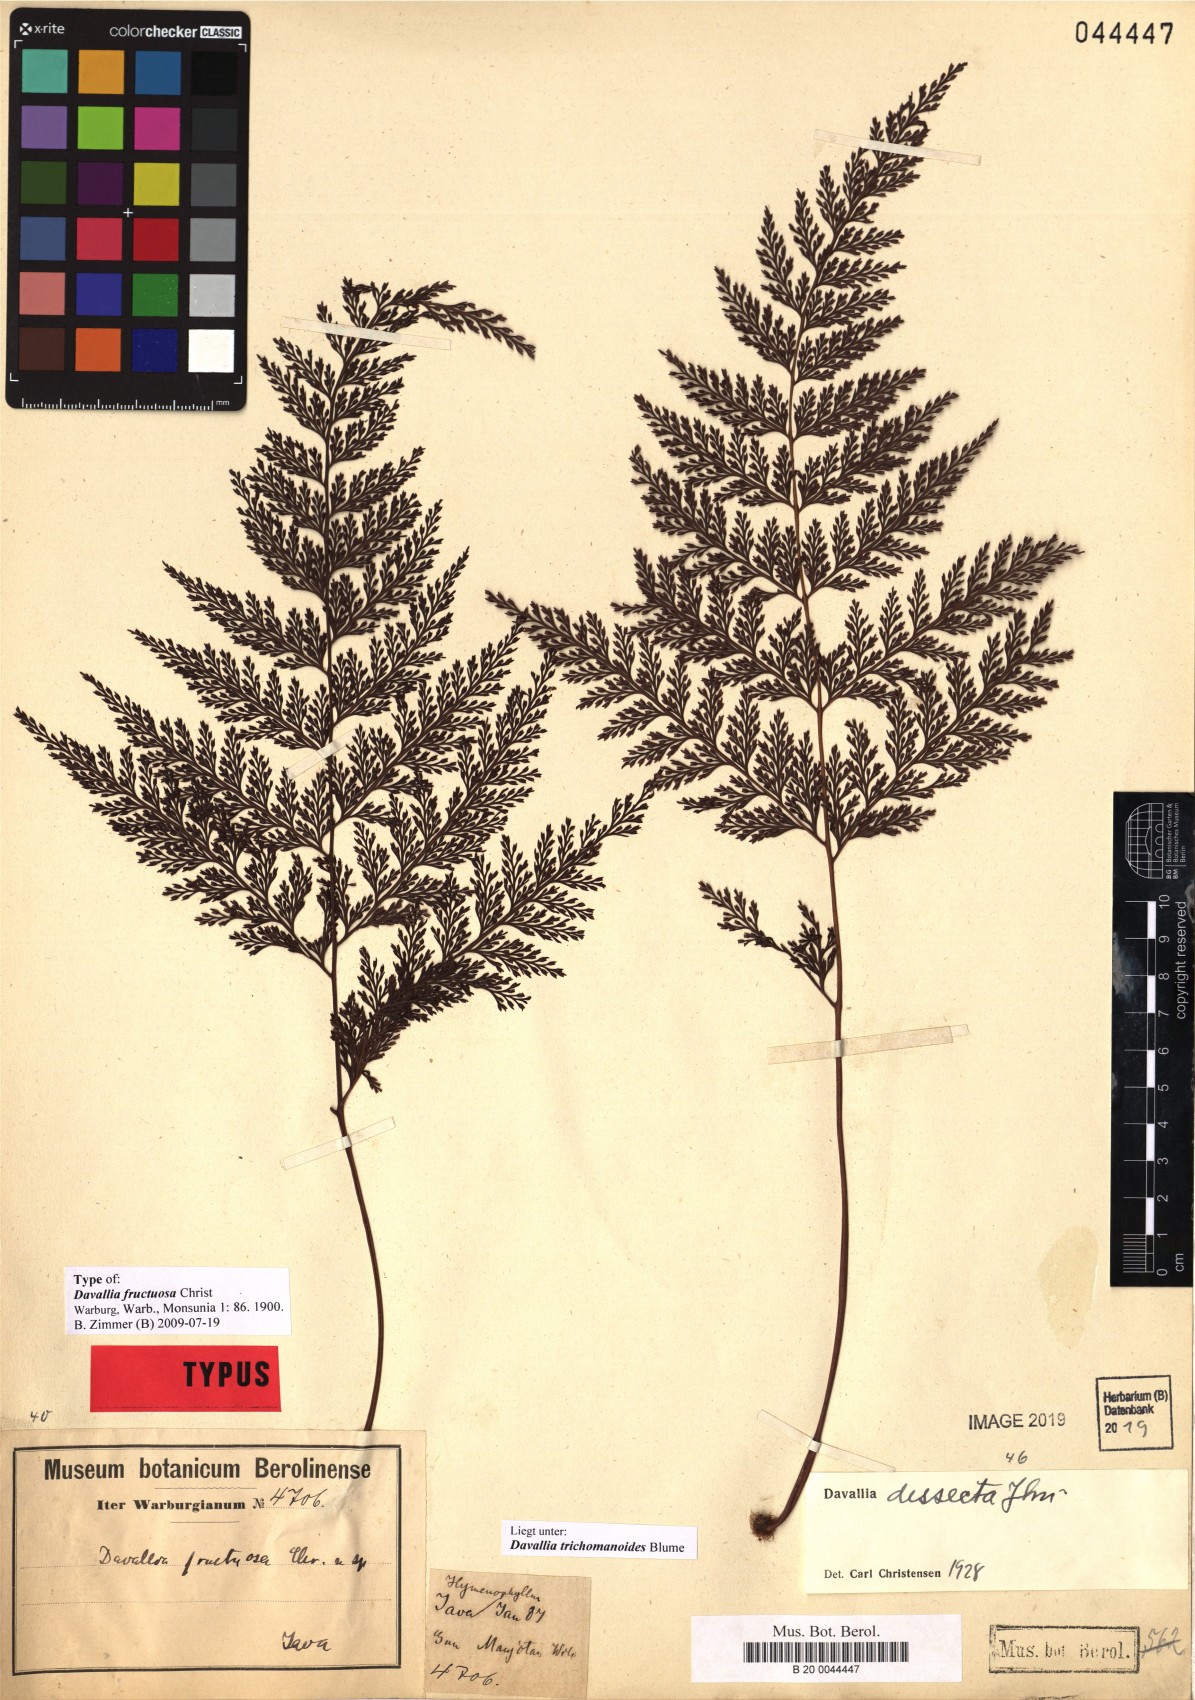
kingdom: Plantae
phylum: Tracheophyta
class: Polypodiopsida
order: Polypodiales
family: Polypodiaceae
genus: Parrisia
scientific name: Parrisia parietina
